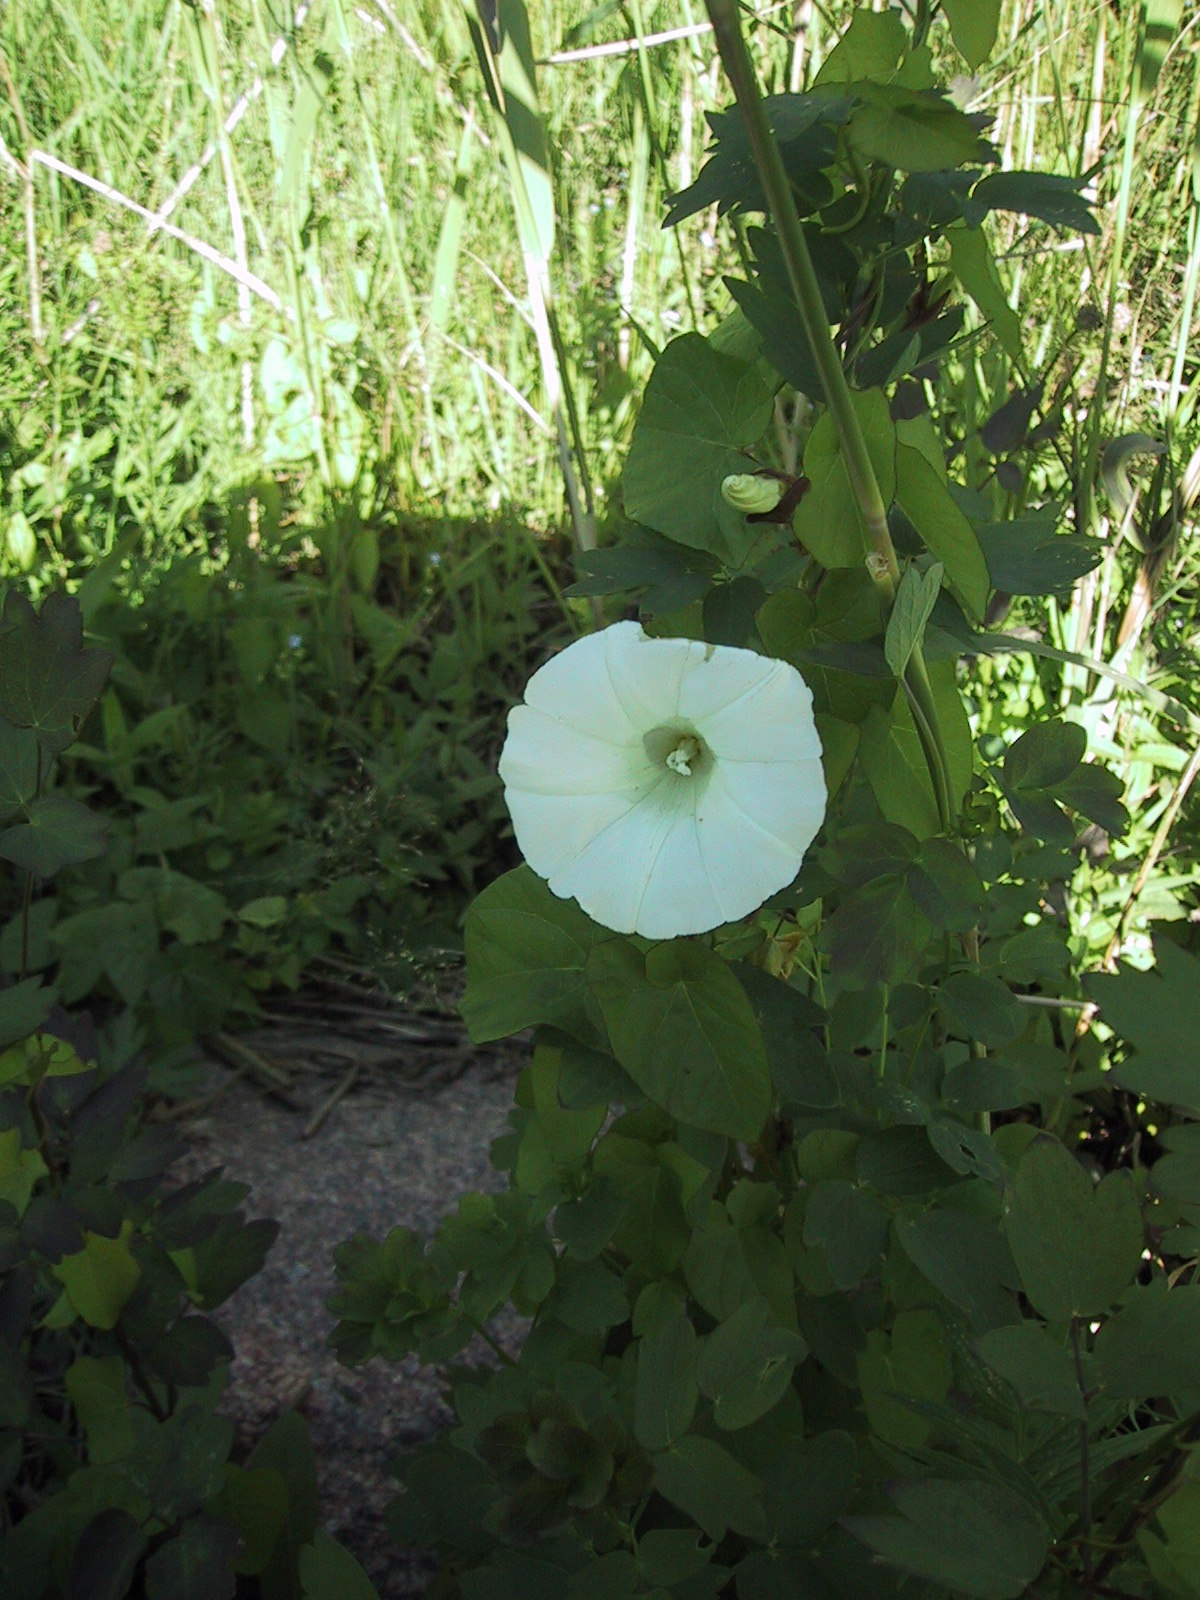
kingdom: Plantae
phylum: Tracheophyta
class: Magnoliopsida
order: Solanales
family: Convolvulaceae
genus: Calystegia
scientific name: Calystegia sepium
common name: Hedge bindweed
